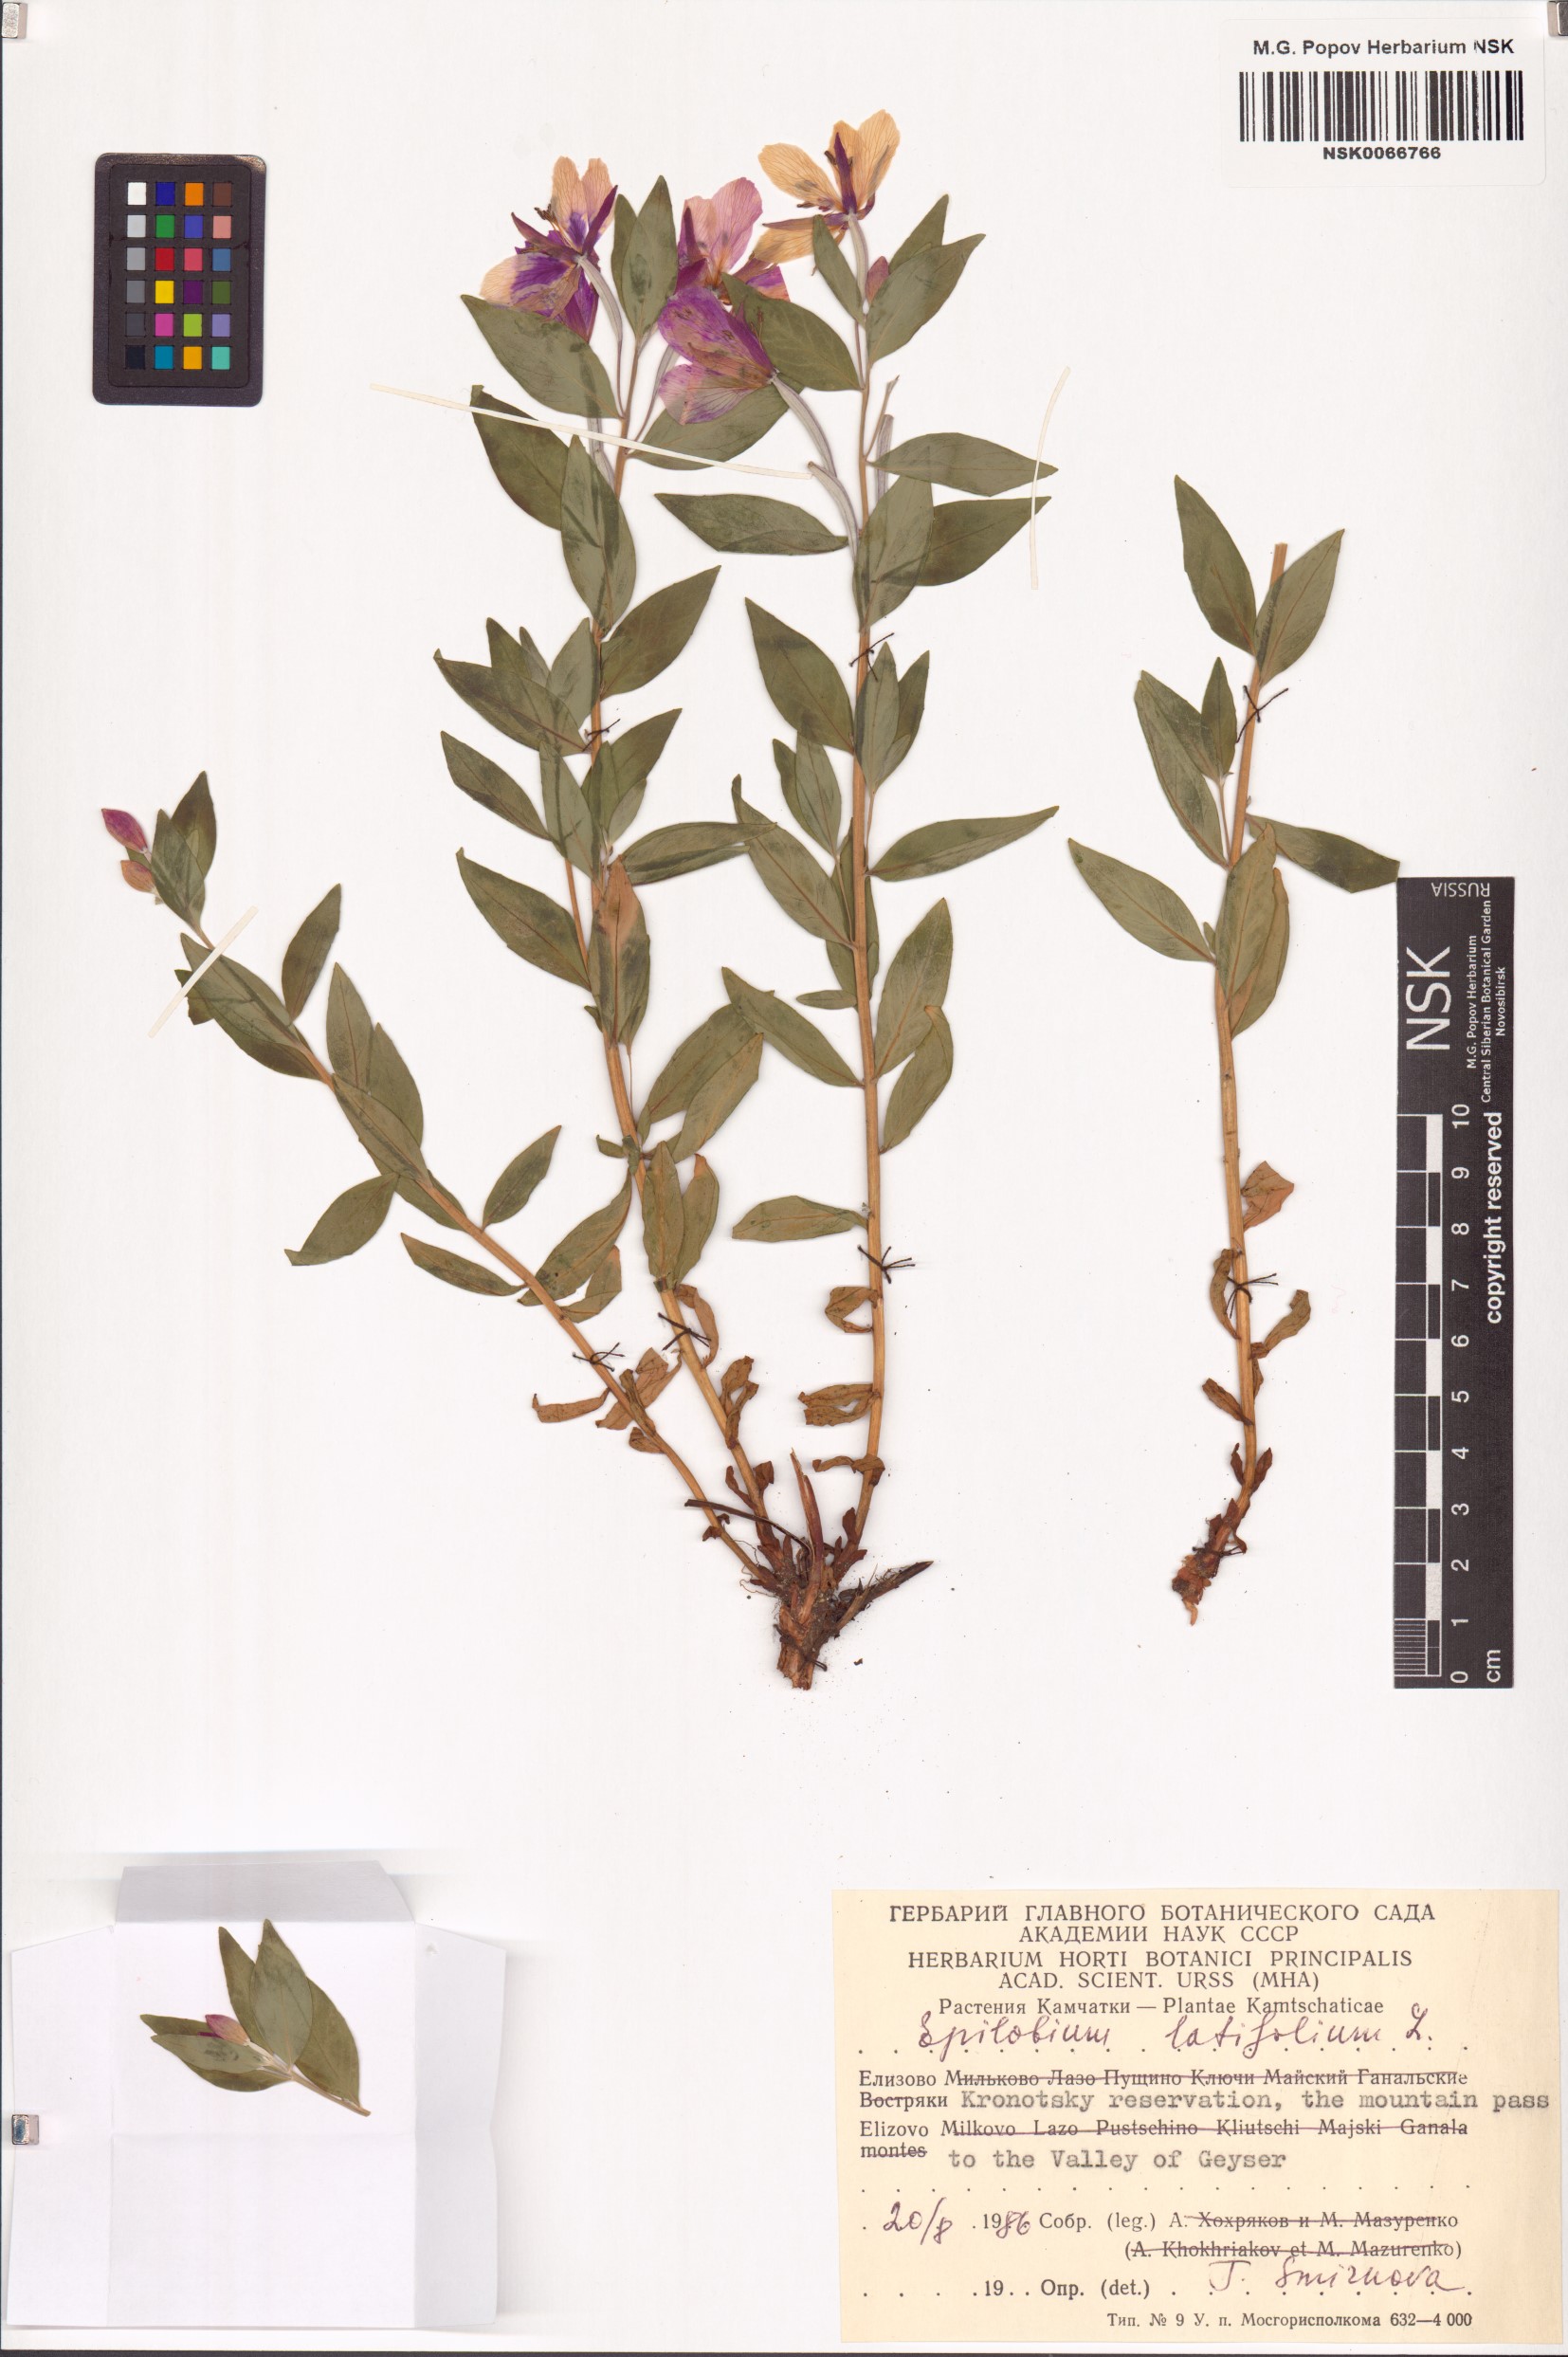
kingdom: Plantae
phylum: Tracheophyta
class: Magnoliopsida
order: Myrtales
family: Onagraceae
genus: Chamaenerion
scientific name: Chamaenerion latifolium
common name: Dwarf fireweed
